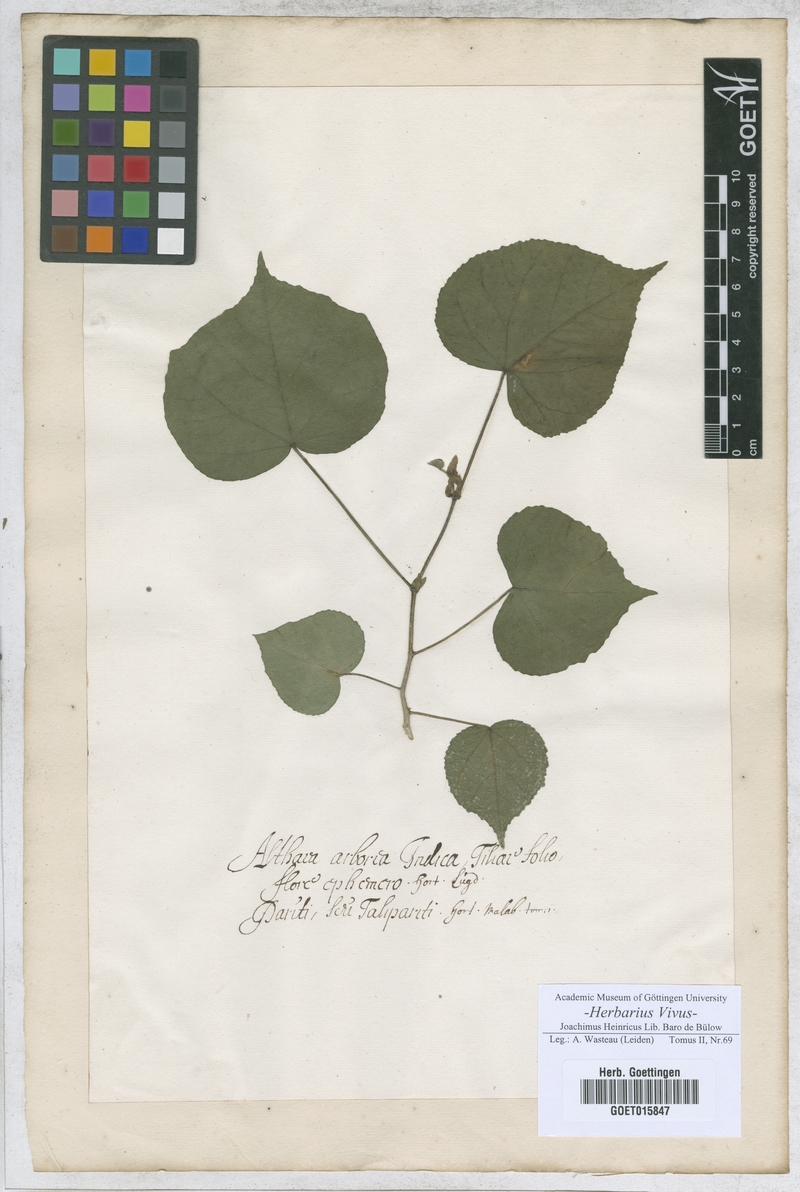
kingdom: Plantae
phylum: Tracheophyta
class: Magnoliopsida
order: Malvales
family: Malvaceae
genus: Althaea
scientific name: Althaea
